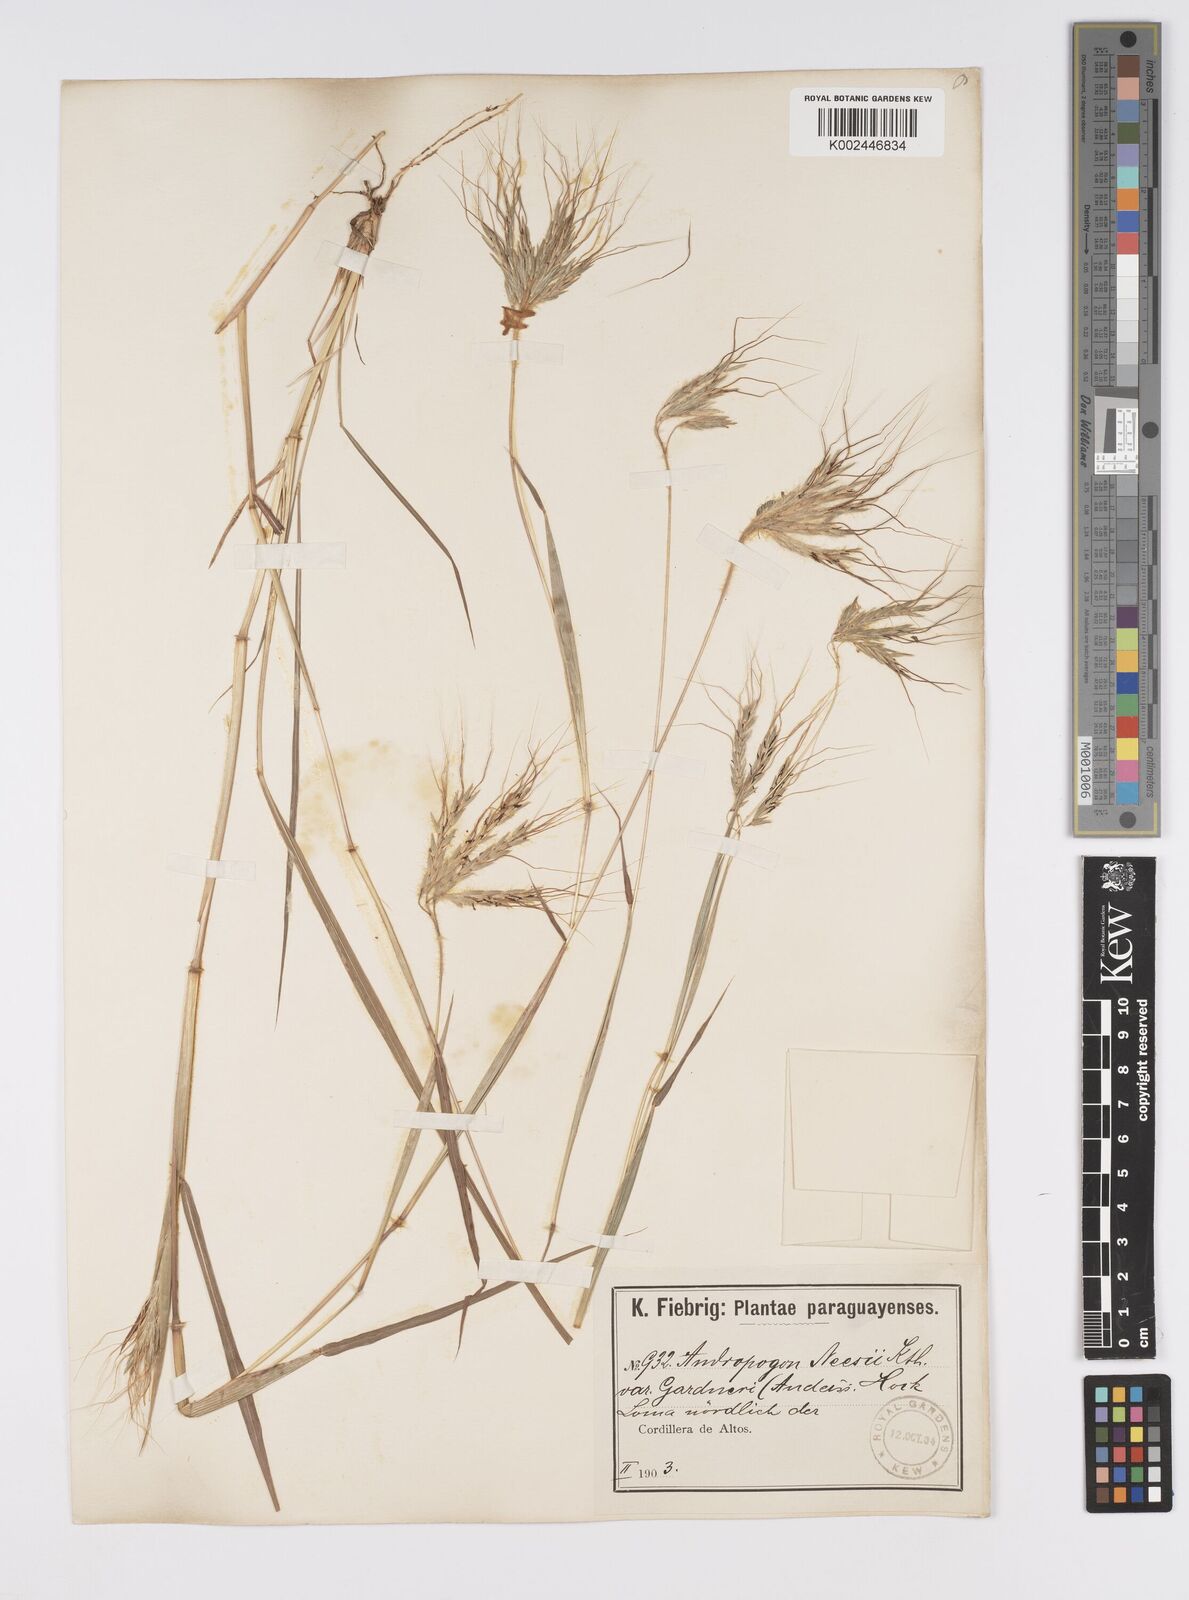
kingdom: Plantae
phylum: Tracheophyta
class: Liliopsida
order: Poales
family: Poaceae
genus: Agenium
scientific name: Agenium villosum
